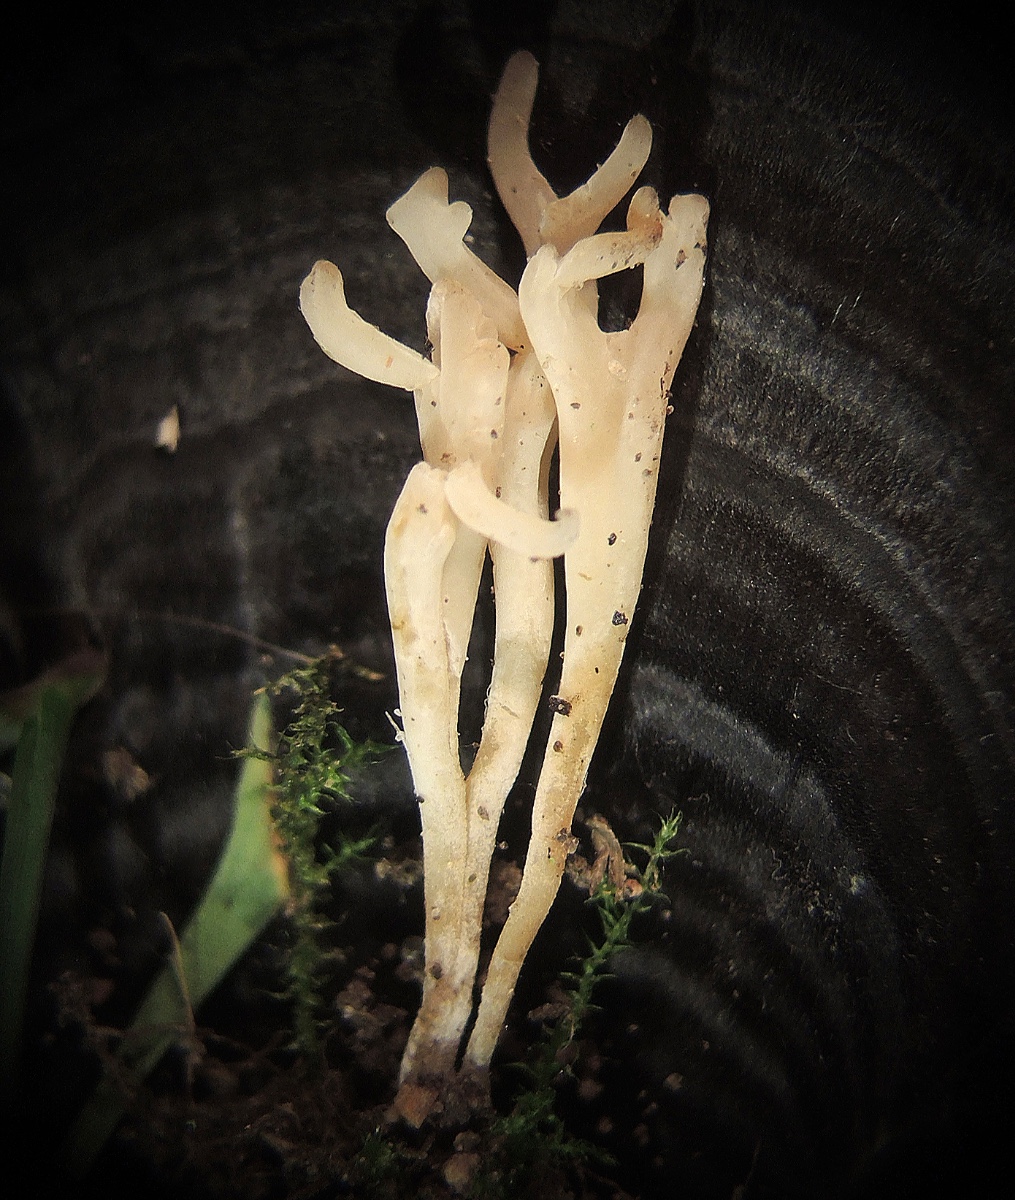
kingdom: Fungi
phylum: Basidiomycota
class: Agaricomycetes
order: Agaricales
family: Clavariaceae
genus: Ramariopsis
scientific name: Ramariopsis subtilis
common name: Slender coral
